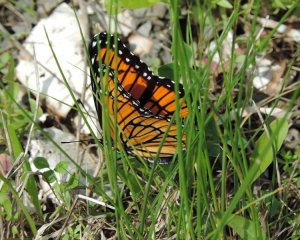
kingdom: Animalia
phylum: Arthropoda
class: Insecta
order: Lepidoptera
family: Nymphalidae
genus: Limenitis
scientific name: Limenitis archippus
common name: Viceroy
